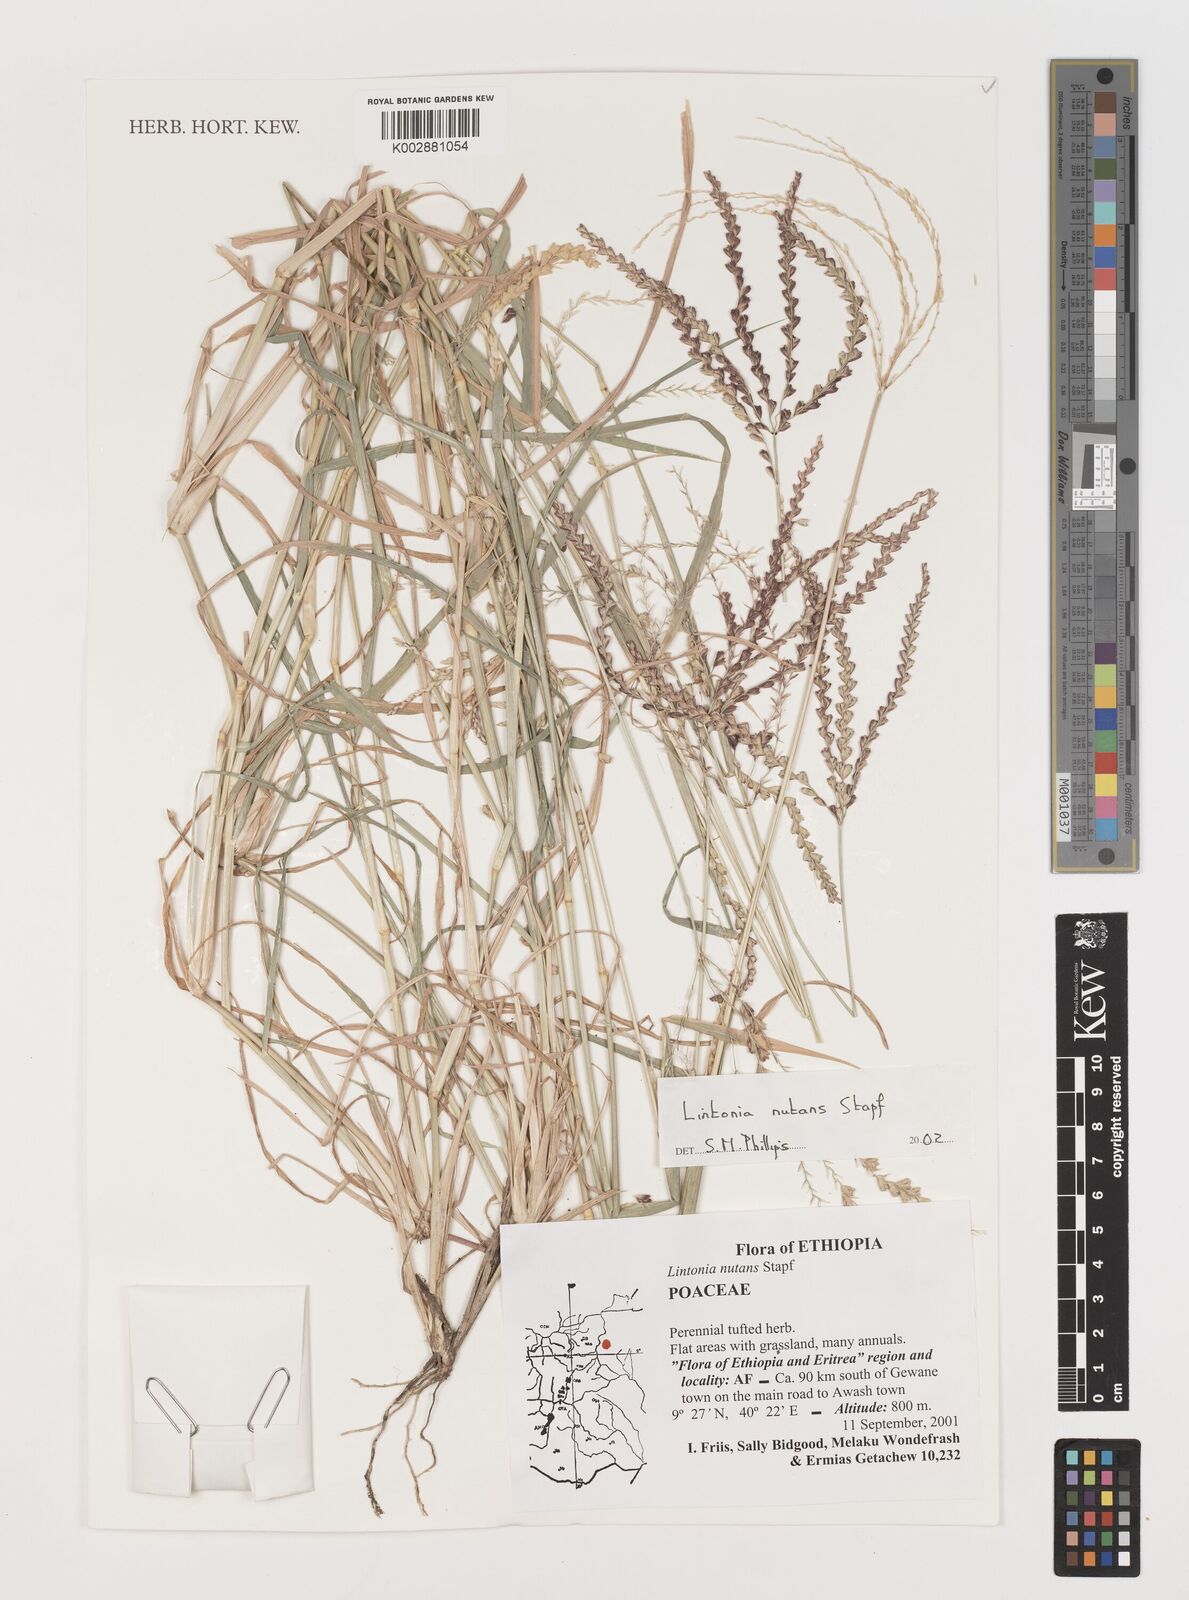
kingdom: Plantae
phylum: Tracheophyta
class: Liliopsida
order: Poales
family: Poaceae
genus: Chloris
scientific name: Chloris nutans
